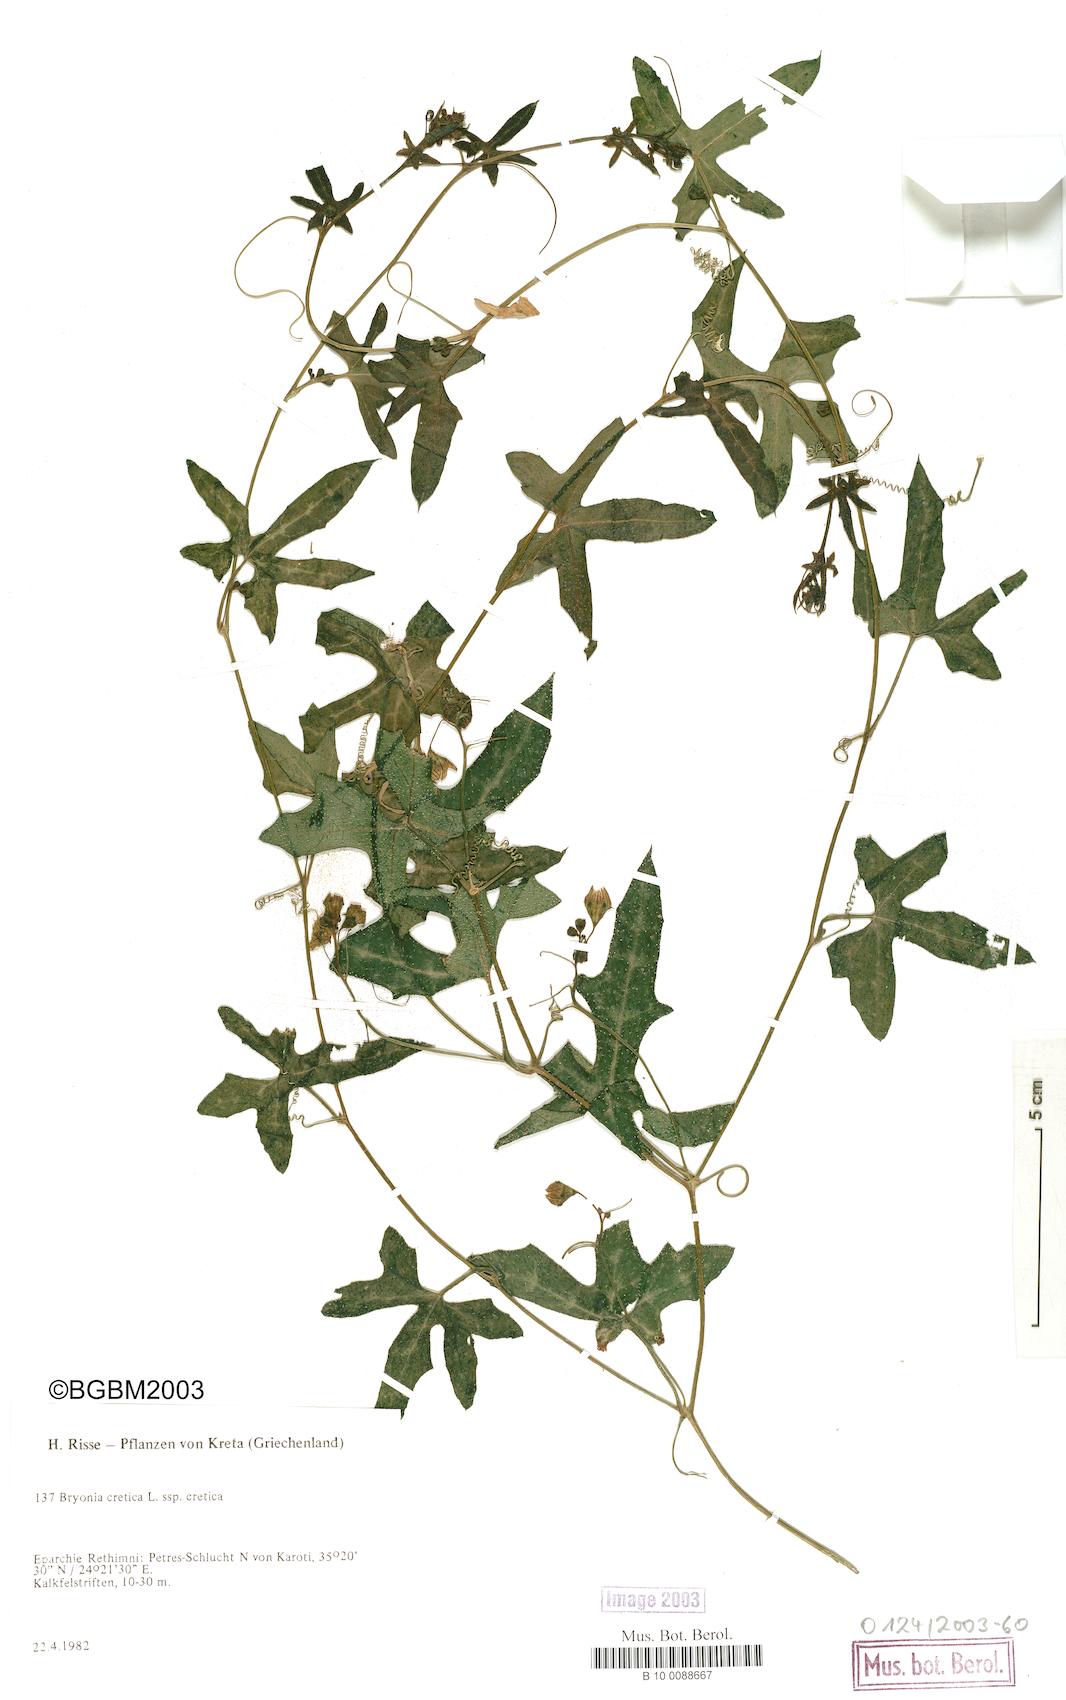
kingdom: Plantae
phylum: Tracheophyta
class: Magnoliopsida
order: Cucurbitales
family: Cucurbitaceae
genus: Bryonia
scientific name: Bryonia cretica
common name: Cretan bryony
